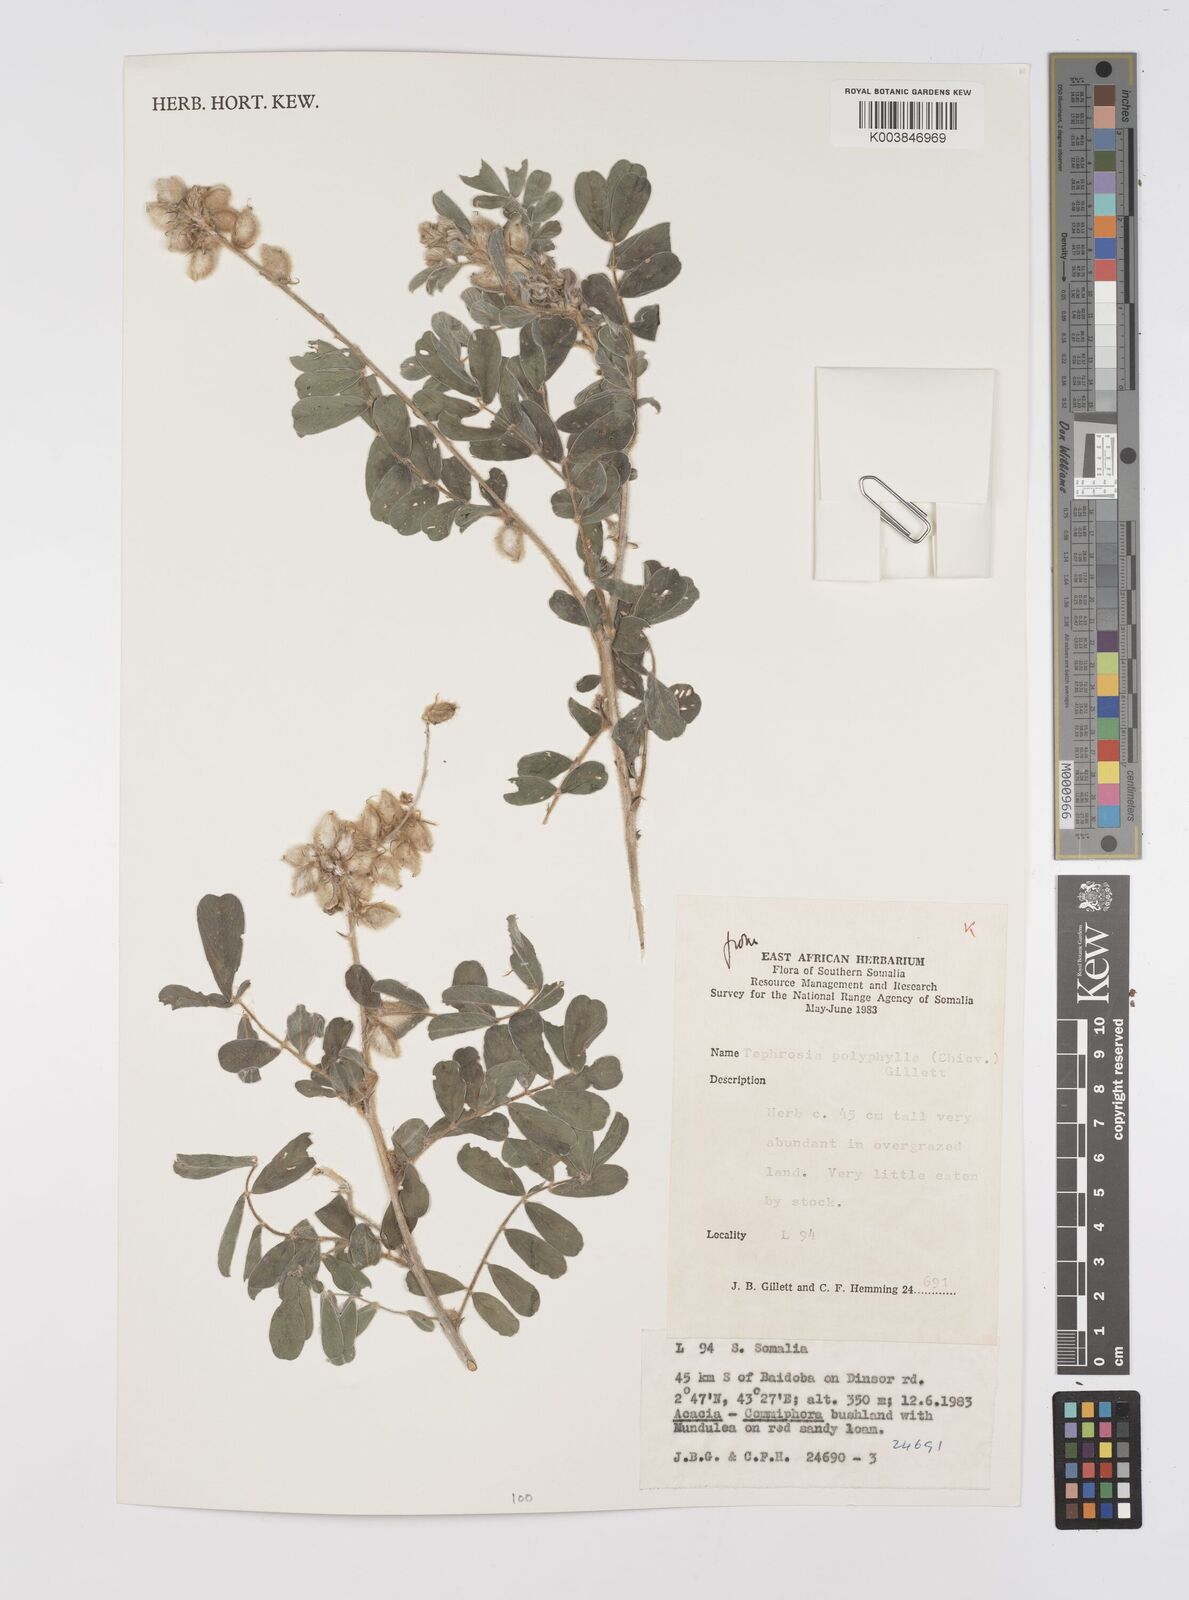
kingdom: Plantae
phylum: Tracheophyta
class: Magnoliopsida
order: Fabales
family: Fabaceae
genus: Tephrosia
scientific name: Tephrosia polyphylla
